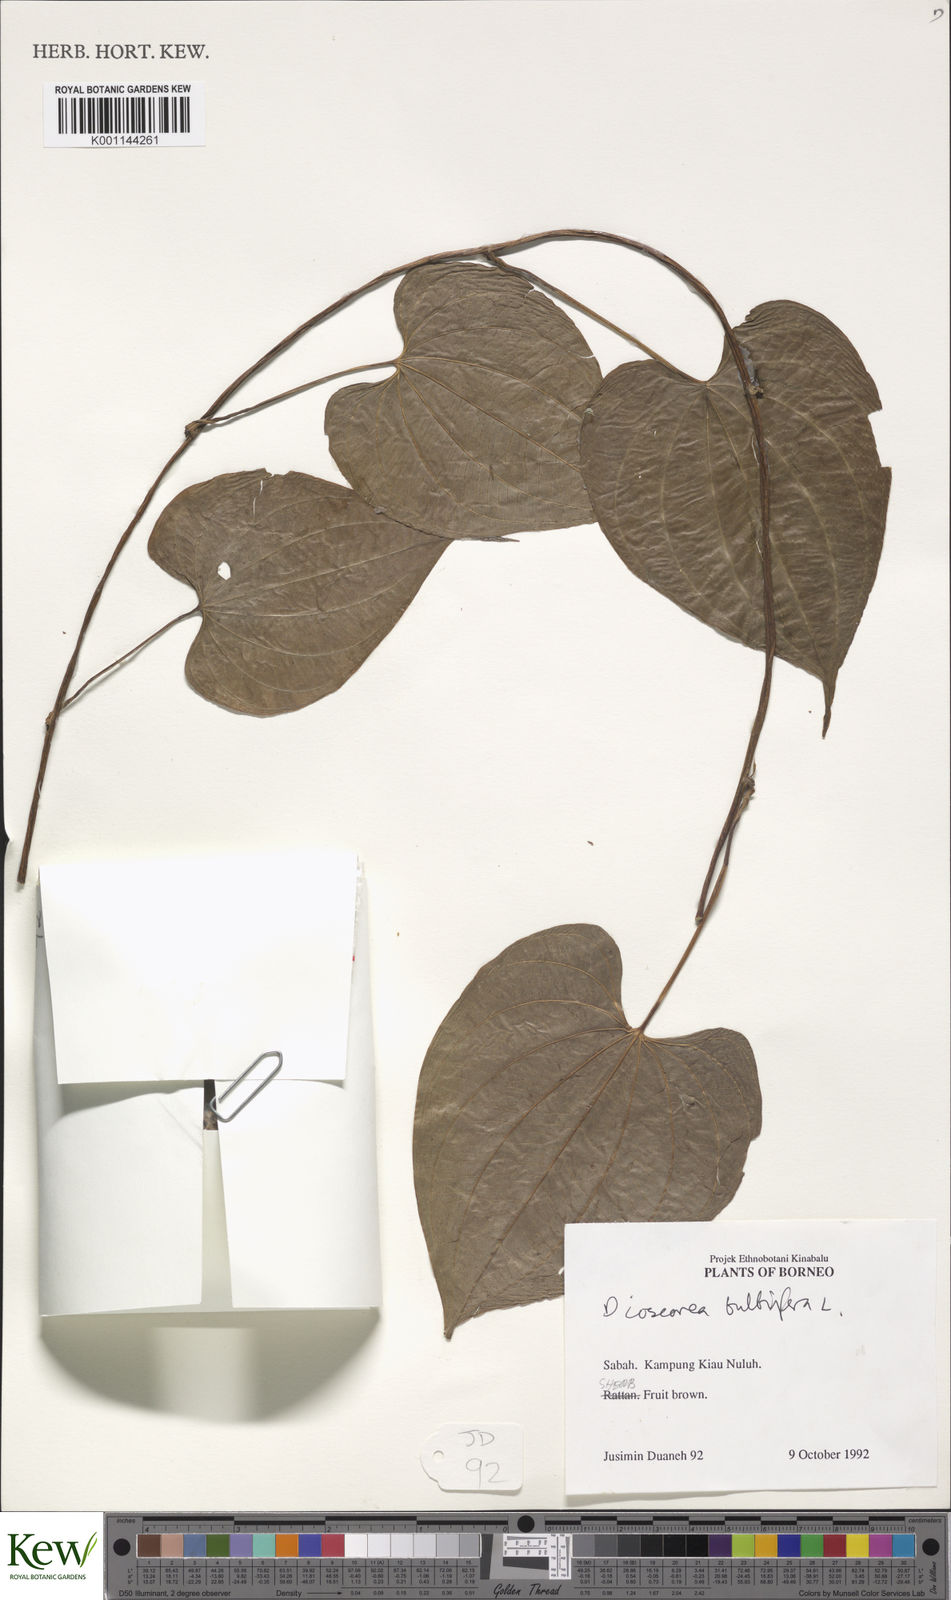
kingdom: Plantae
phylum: Tracheophyta
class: Liliopsida
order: Dioscoreales
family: Dioscoreaceae
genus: Dioscorea
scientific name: Dioscorea bulbifera
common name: Air yam
